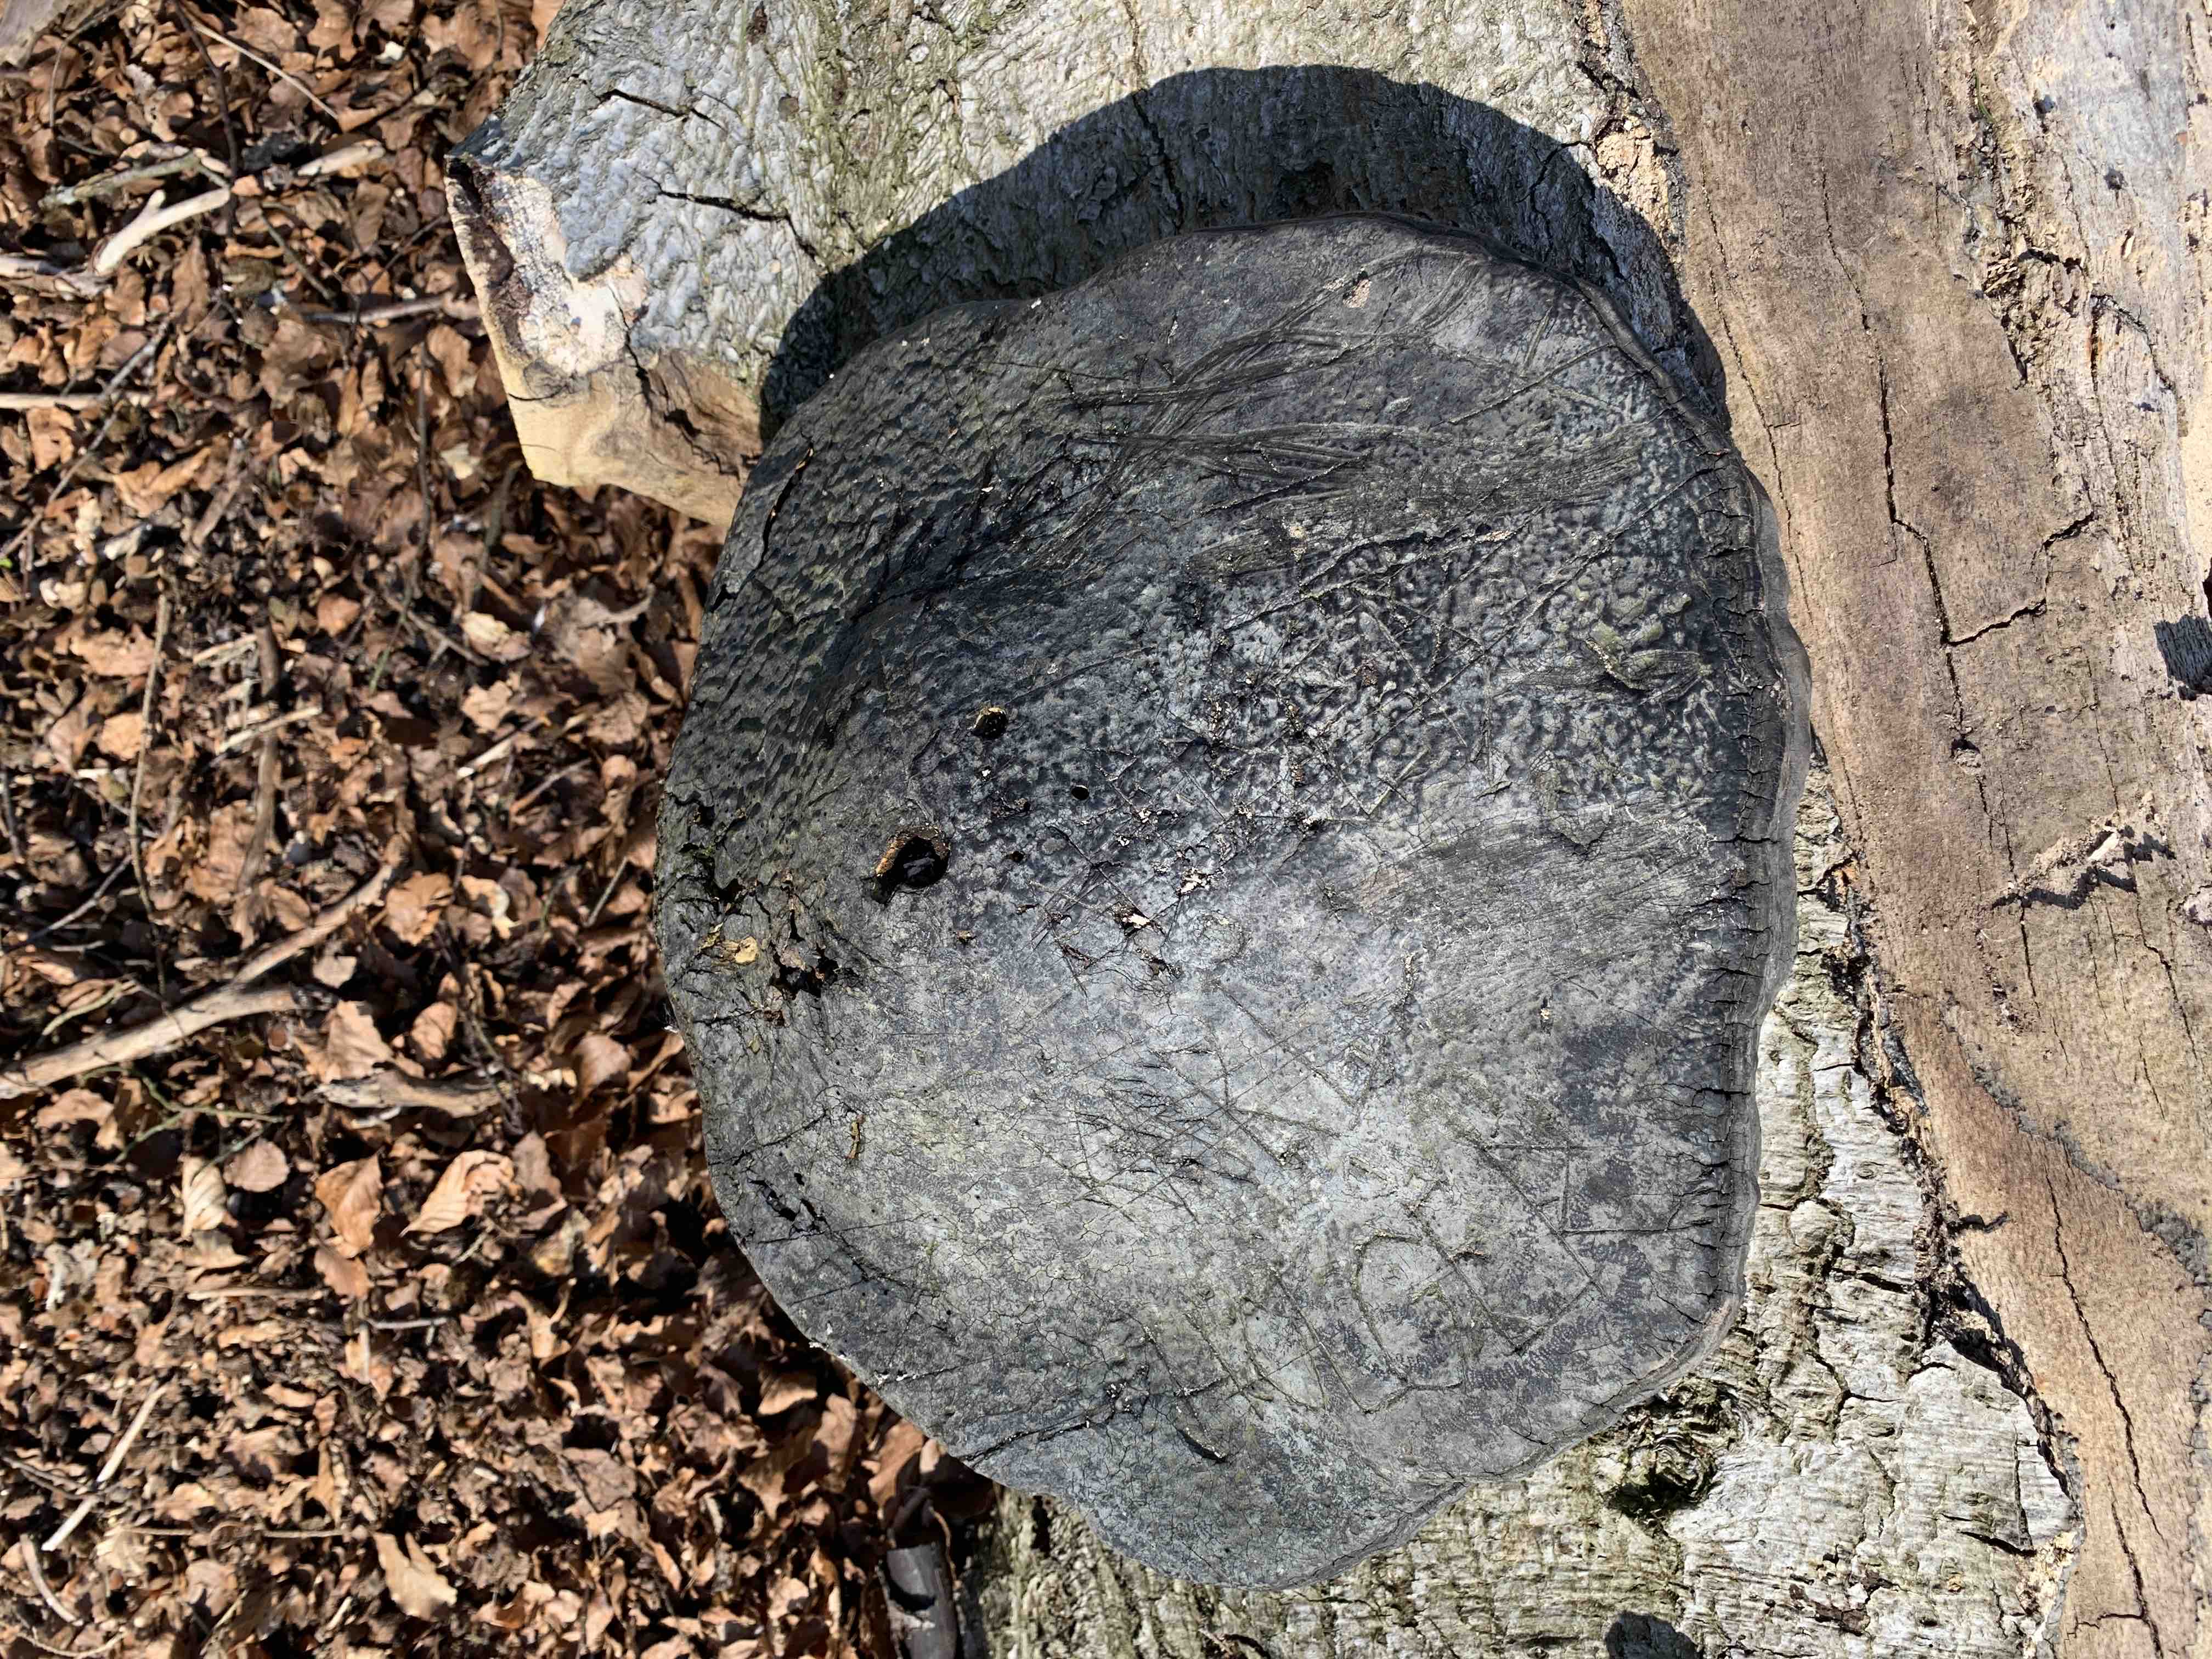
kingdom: Fungi
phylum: Basidiomycota
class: Agaricomycetes
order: Polyporales
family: Polyporaceae
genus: Fomes
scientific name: Fomes fomentarius
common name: tøndersvamp
